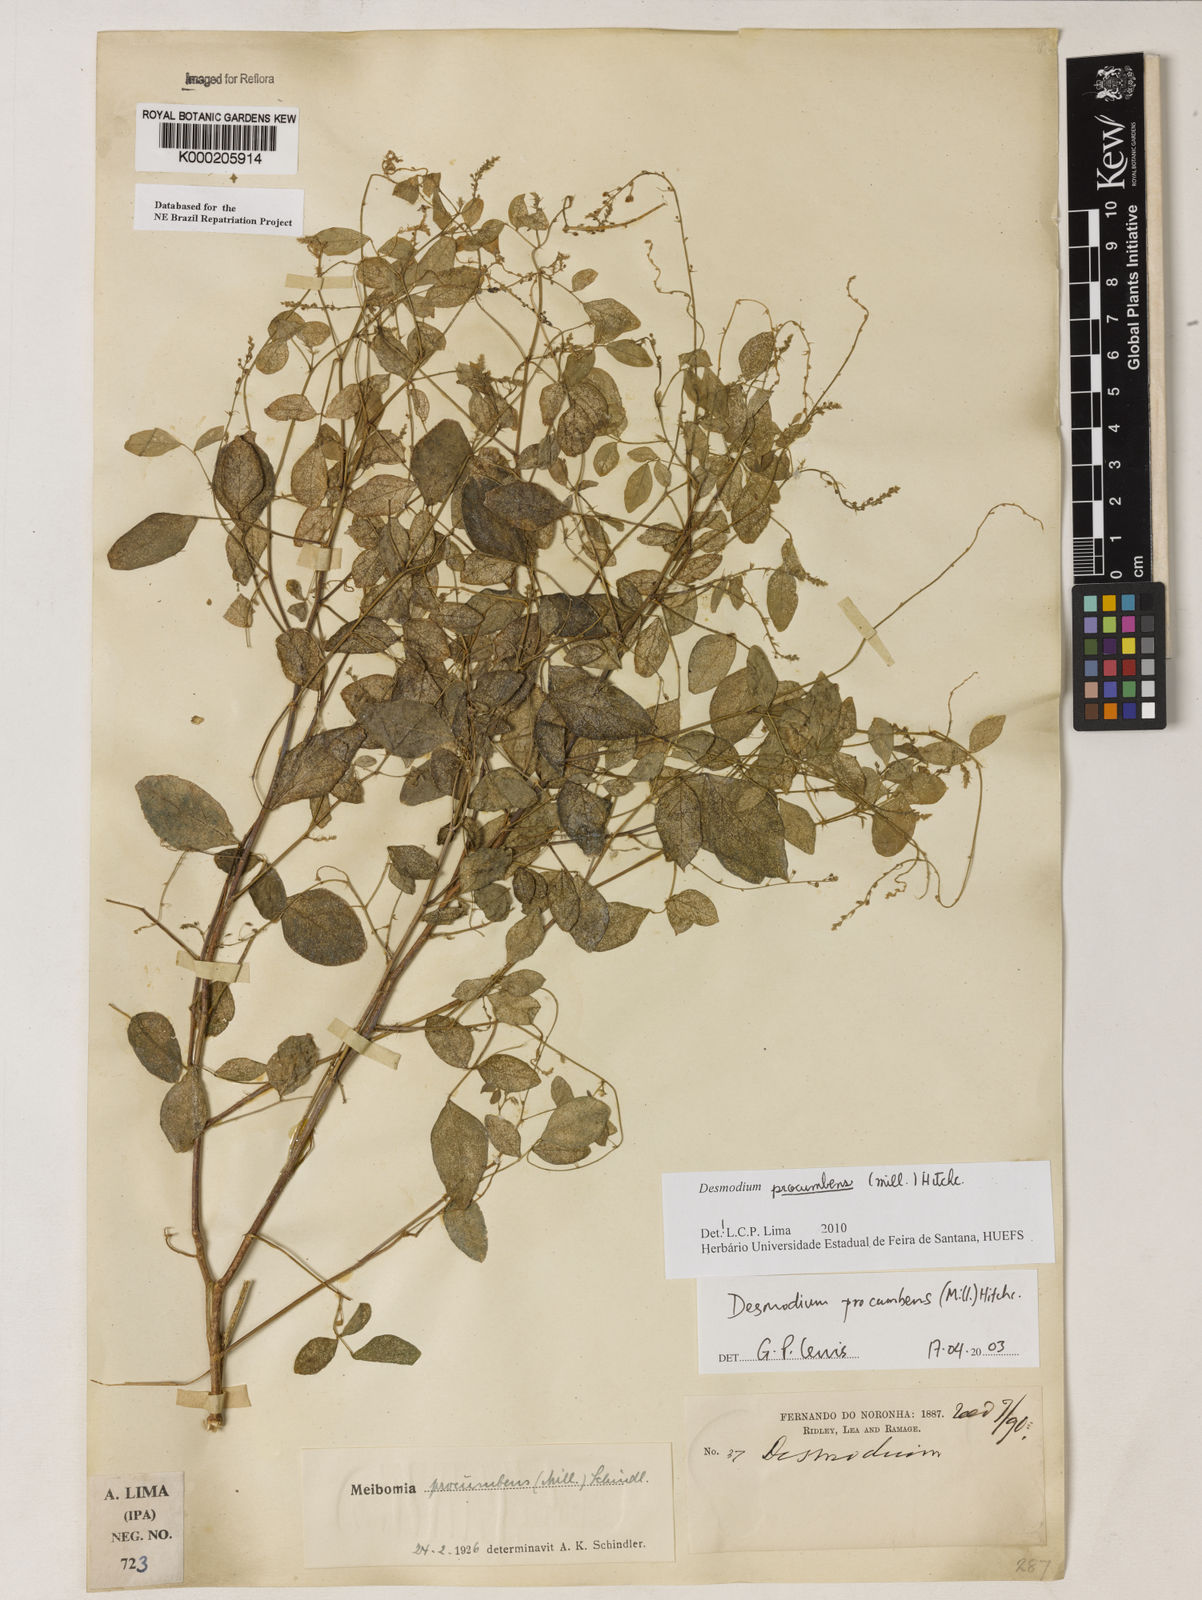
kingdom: Plantae
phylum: Tracheophyta
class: Magnoliopsida
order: Fabales
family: Fabaceae
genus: Desmodium
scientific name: Desmodium procumbens
